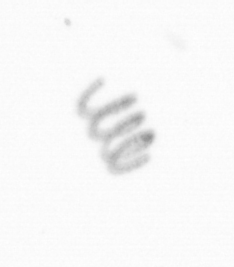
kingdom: Chromista
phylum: Ochrophyta
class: Bacillariophyceae
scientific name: Bacillariophyceae
